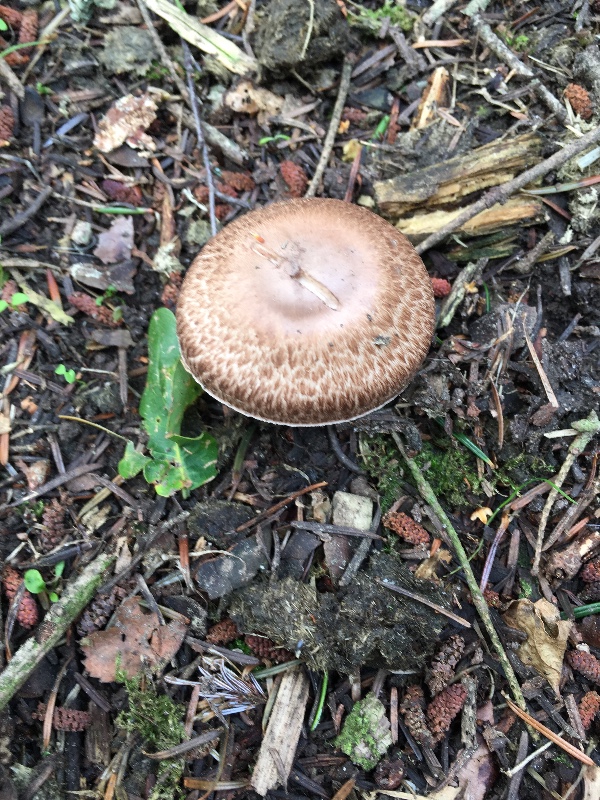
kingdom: Fungi
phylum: Basidiomycota
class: Agaricomycetes
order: Agaricales
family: Agaricaceae
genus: Agaricus
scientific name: Agaricus
